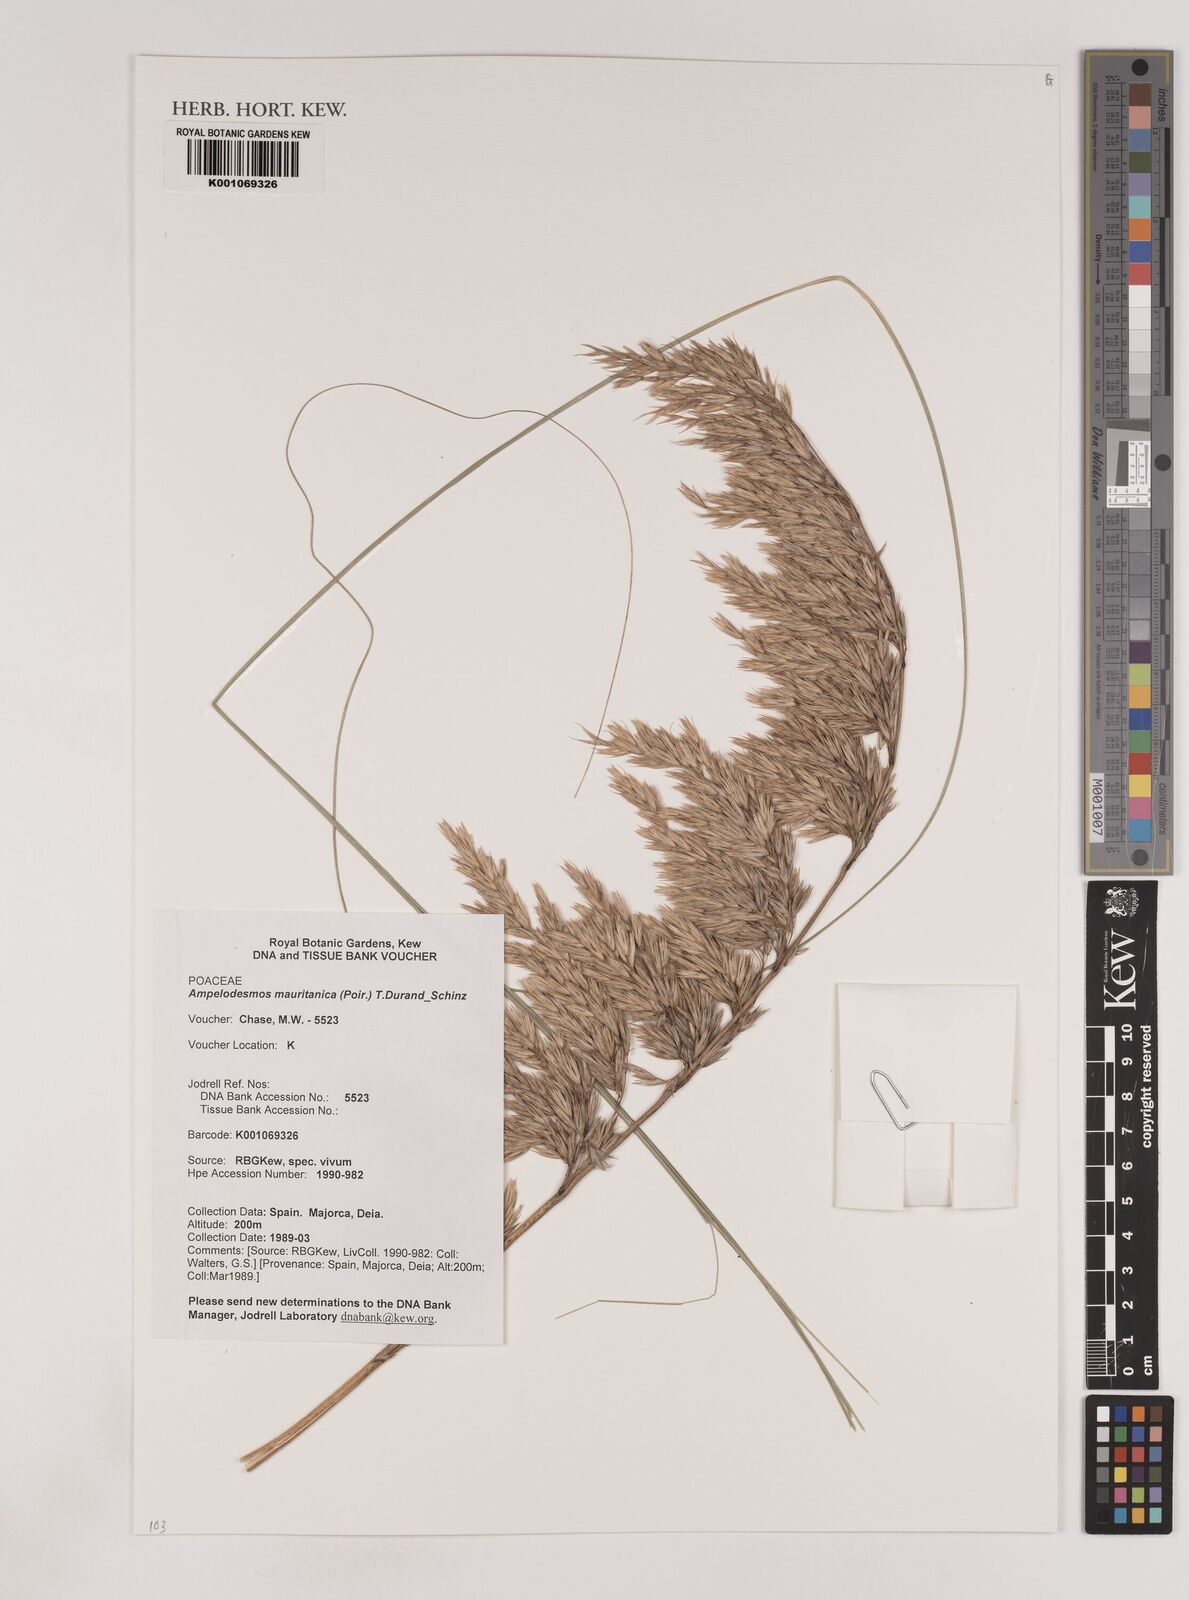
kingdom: Plantae
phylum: Tracheophyta
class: Liliopsida
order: Poales
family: Poaceae
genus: Ampelodesmos
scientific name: Ampelodesmos mauritanicus
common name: Mauritanian grass
